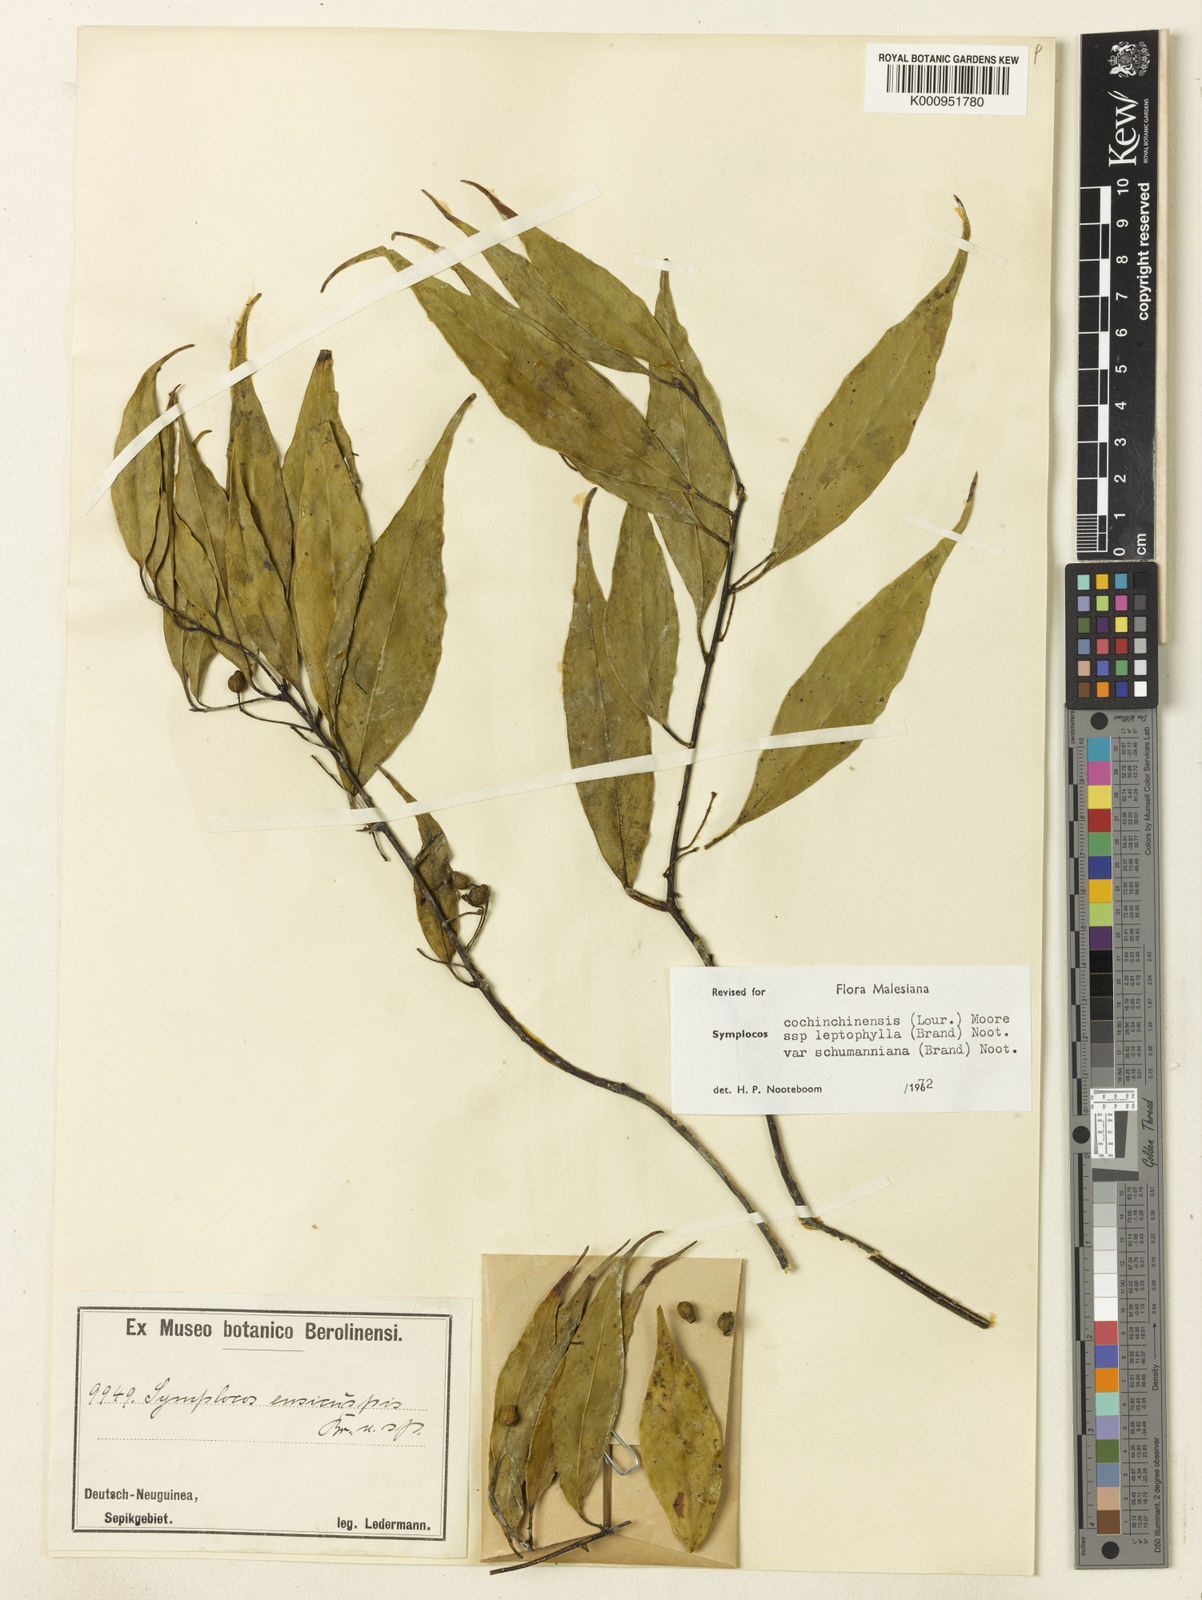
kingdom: Plantae
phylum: Tracheophyta
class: Magnoliopsida
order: Ericales
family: Symplocaceae
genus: Symplocos
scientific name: Symplocos cochinchinensis
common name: Buff hazelwood
